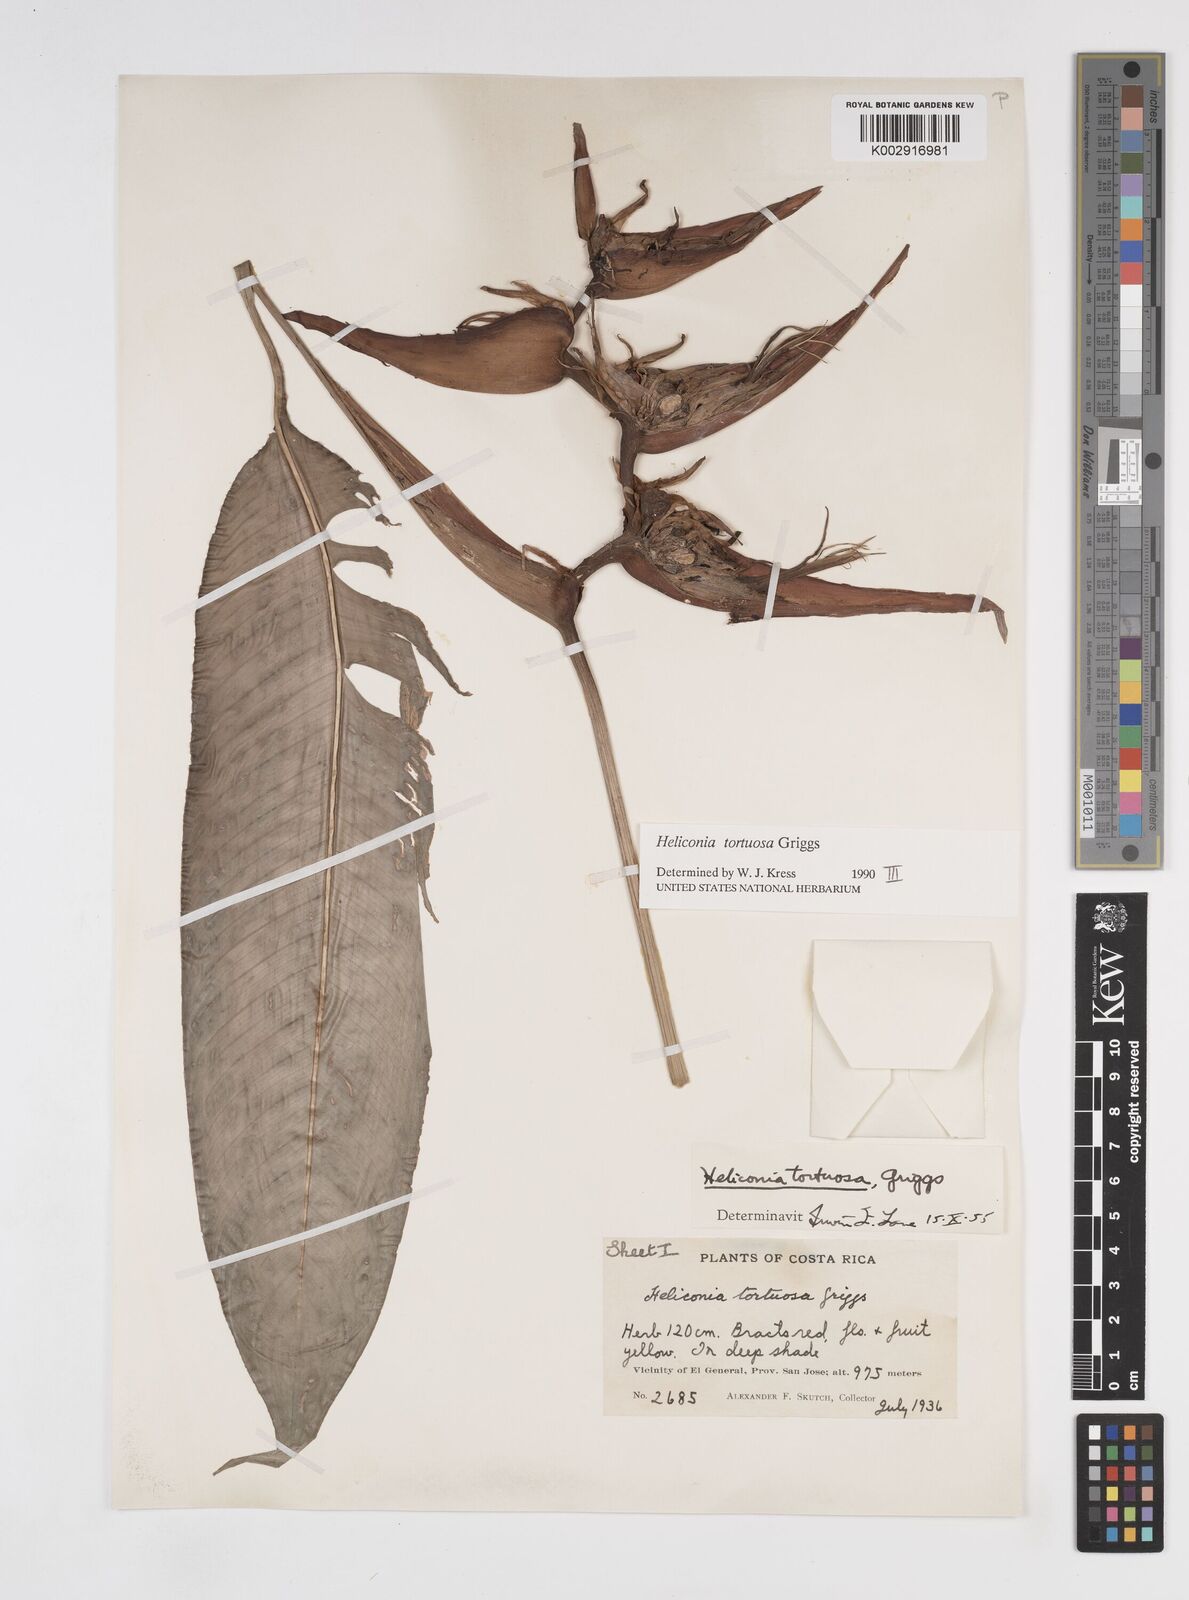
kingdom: Plantae
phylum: Tracheophyta
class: Liliopsida
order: Zingiberales
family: Heliconiaceae
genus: Heliconia
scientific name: Heliconia tortuosa
